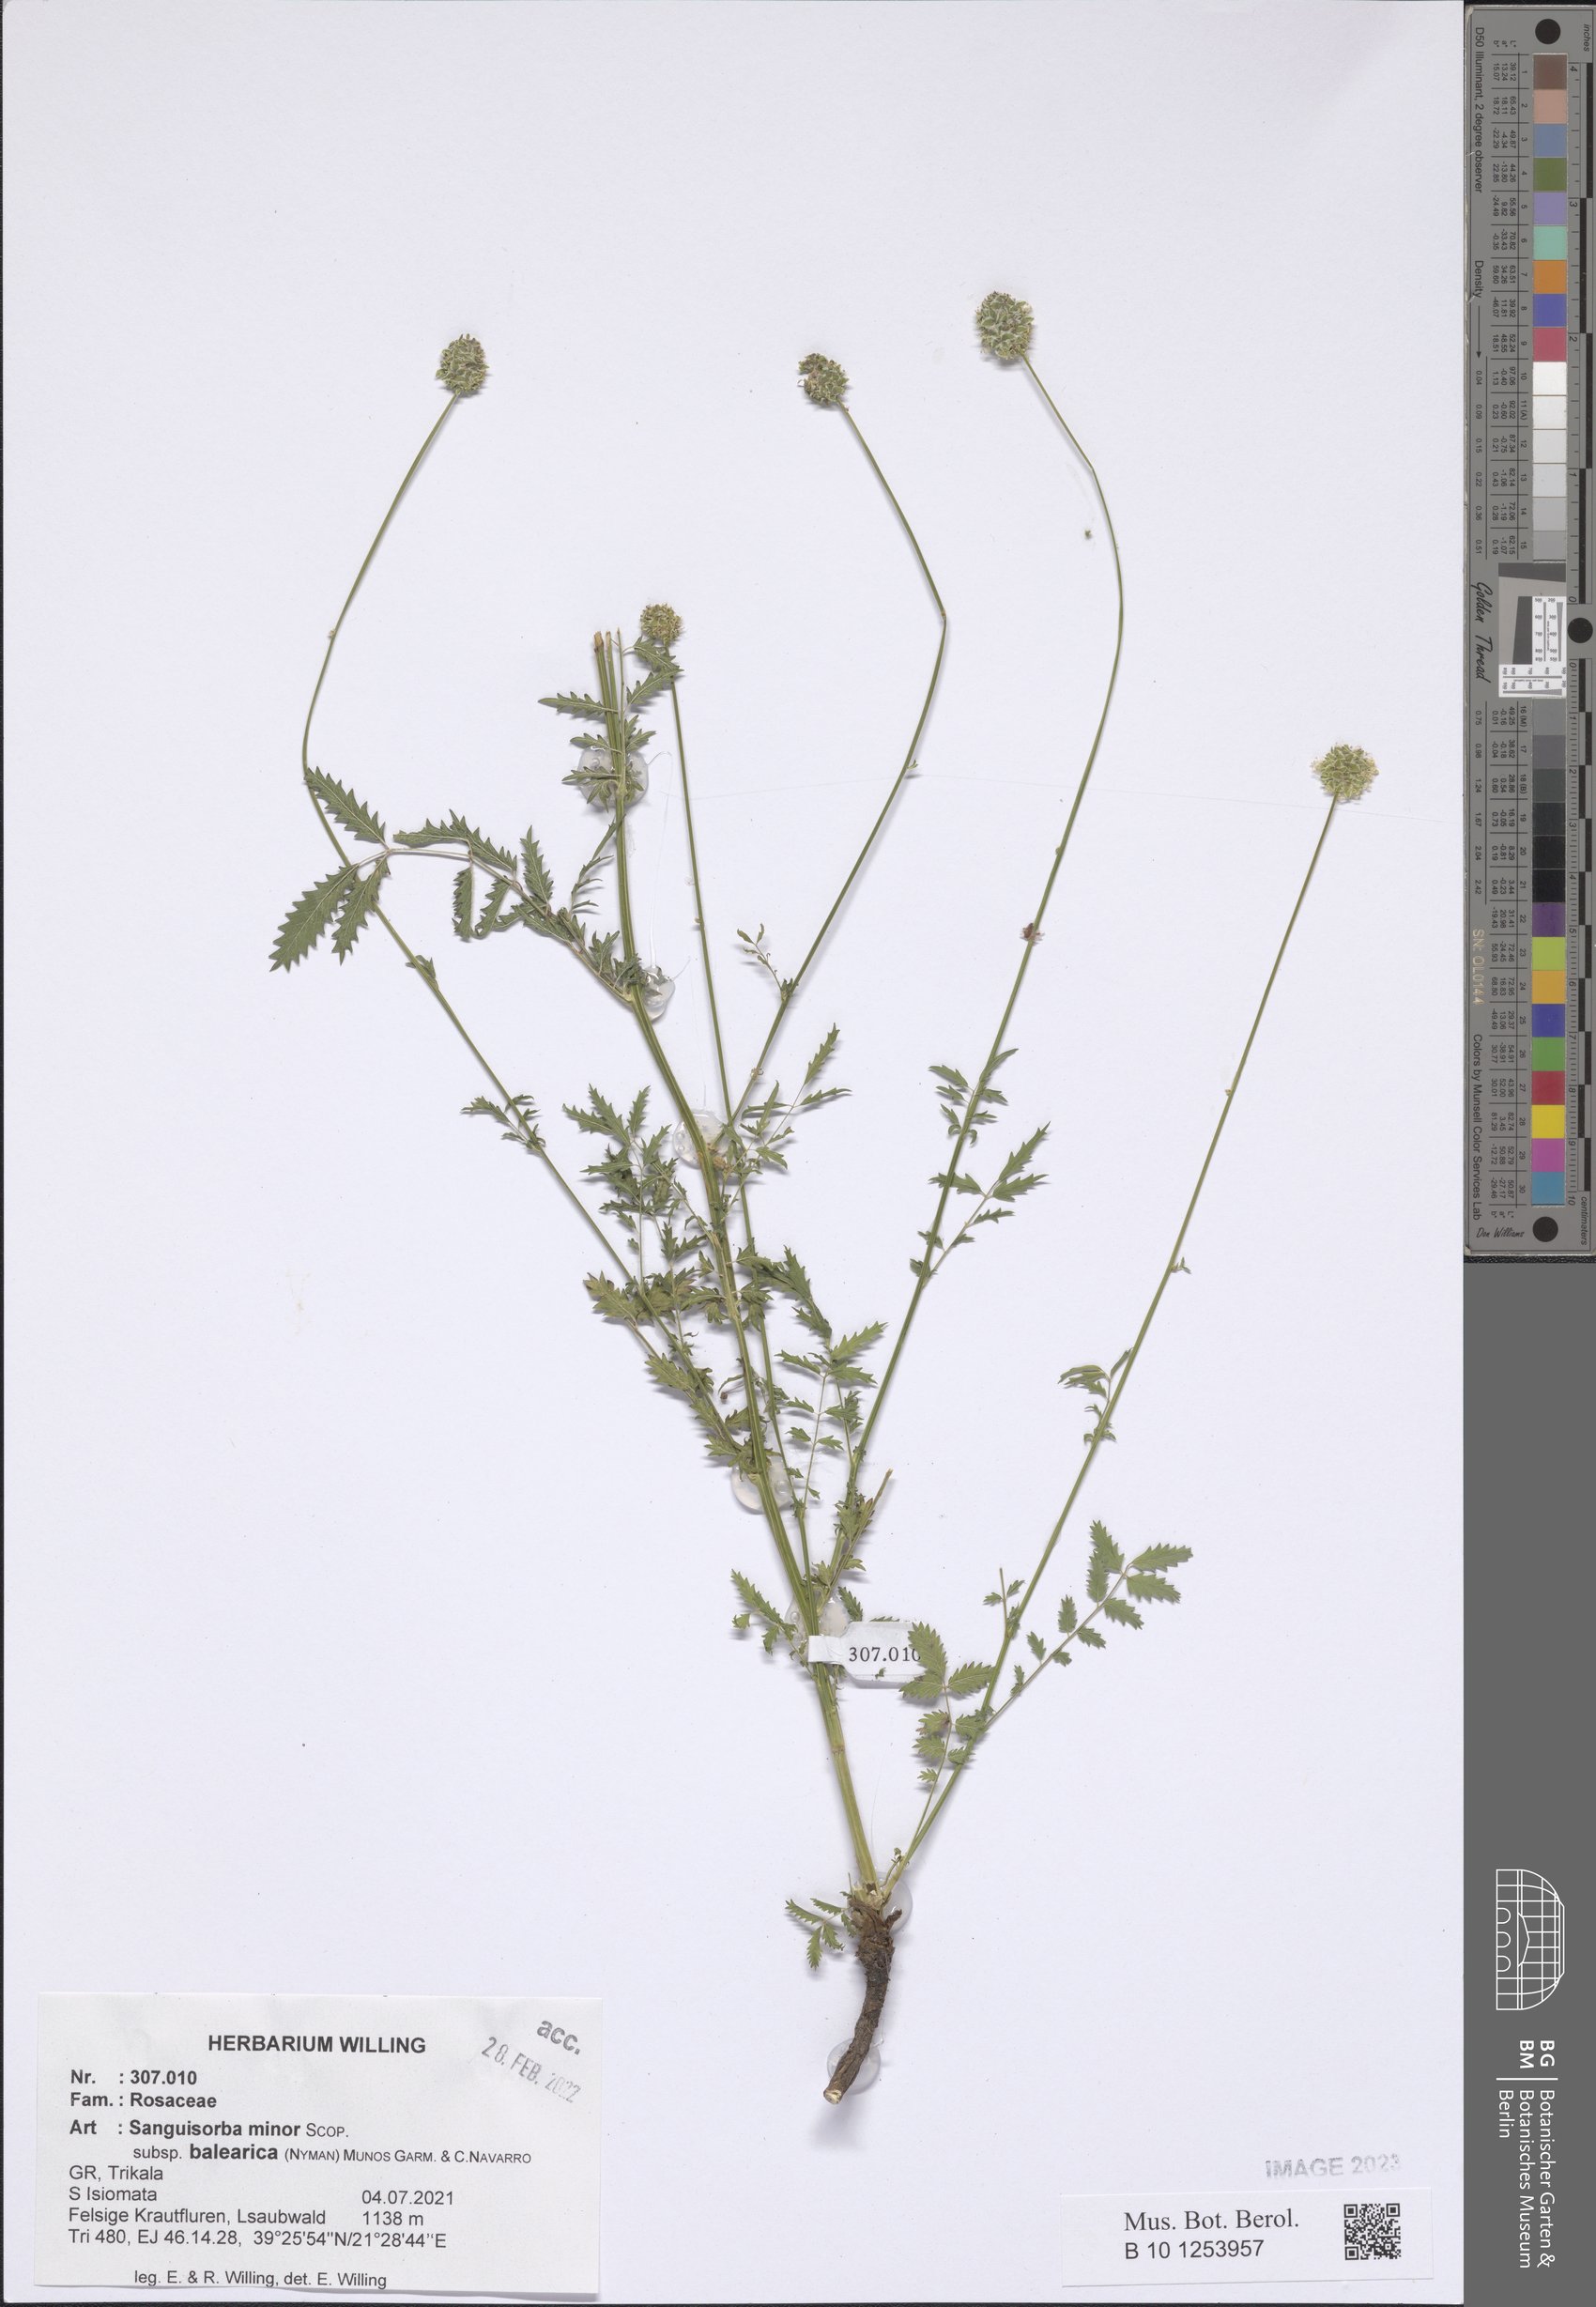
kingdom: Plantae
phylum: Tracheophyta
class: Magnoliopsida
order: Rosales
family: Rosaceae
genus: Poterium
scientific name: Poterium sanguisorba
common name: Salad burnet
